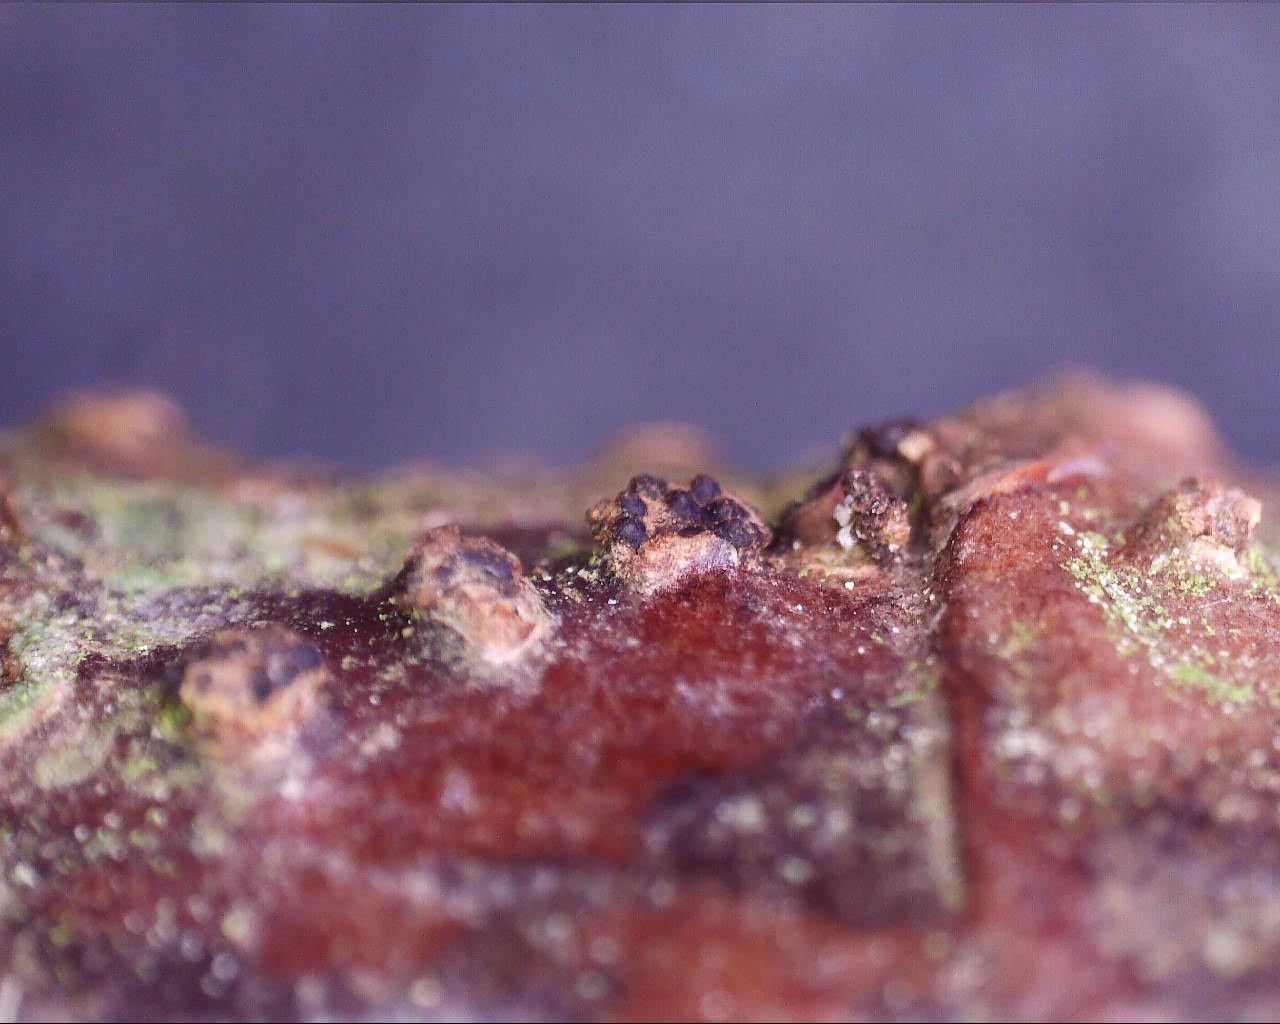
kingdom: Fungi
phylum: Ascomycota
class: Sordariomycetes
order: Diaporthales
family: Melanconidaceae
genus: Melanconis
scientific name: Melanconis alni
